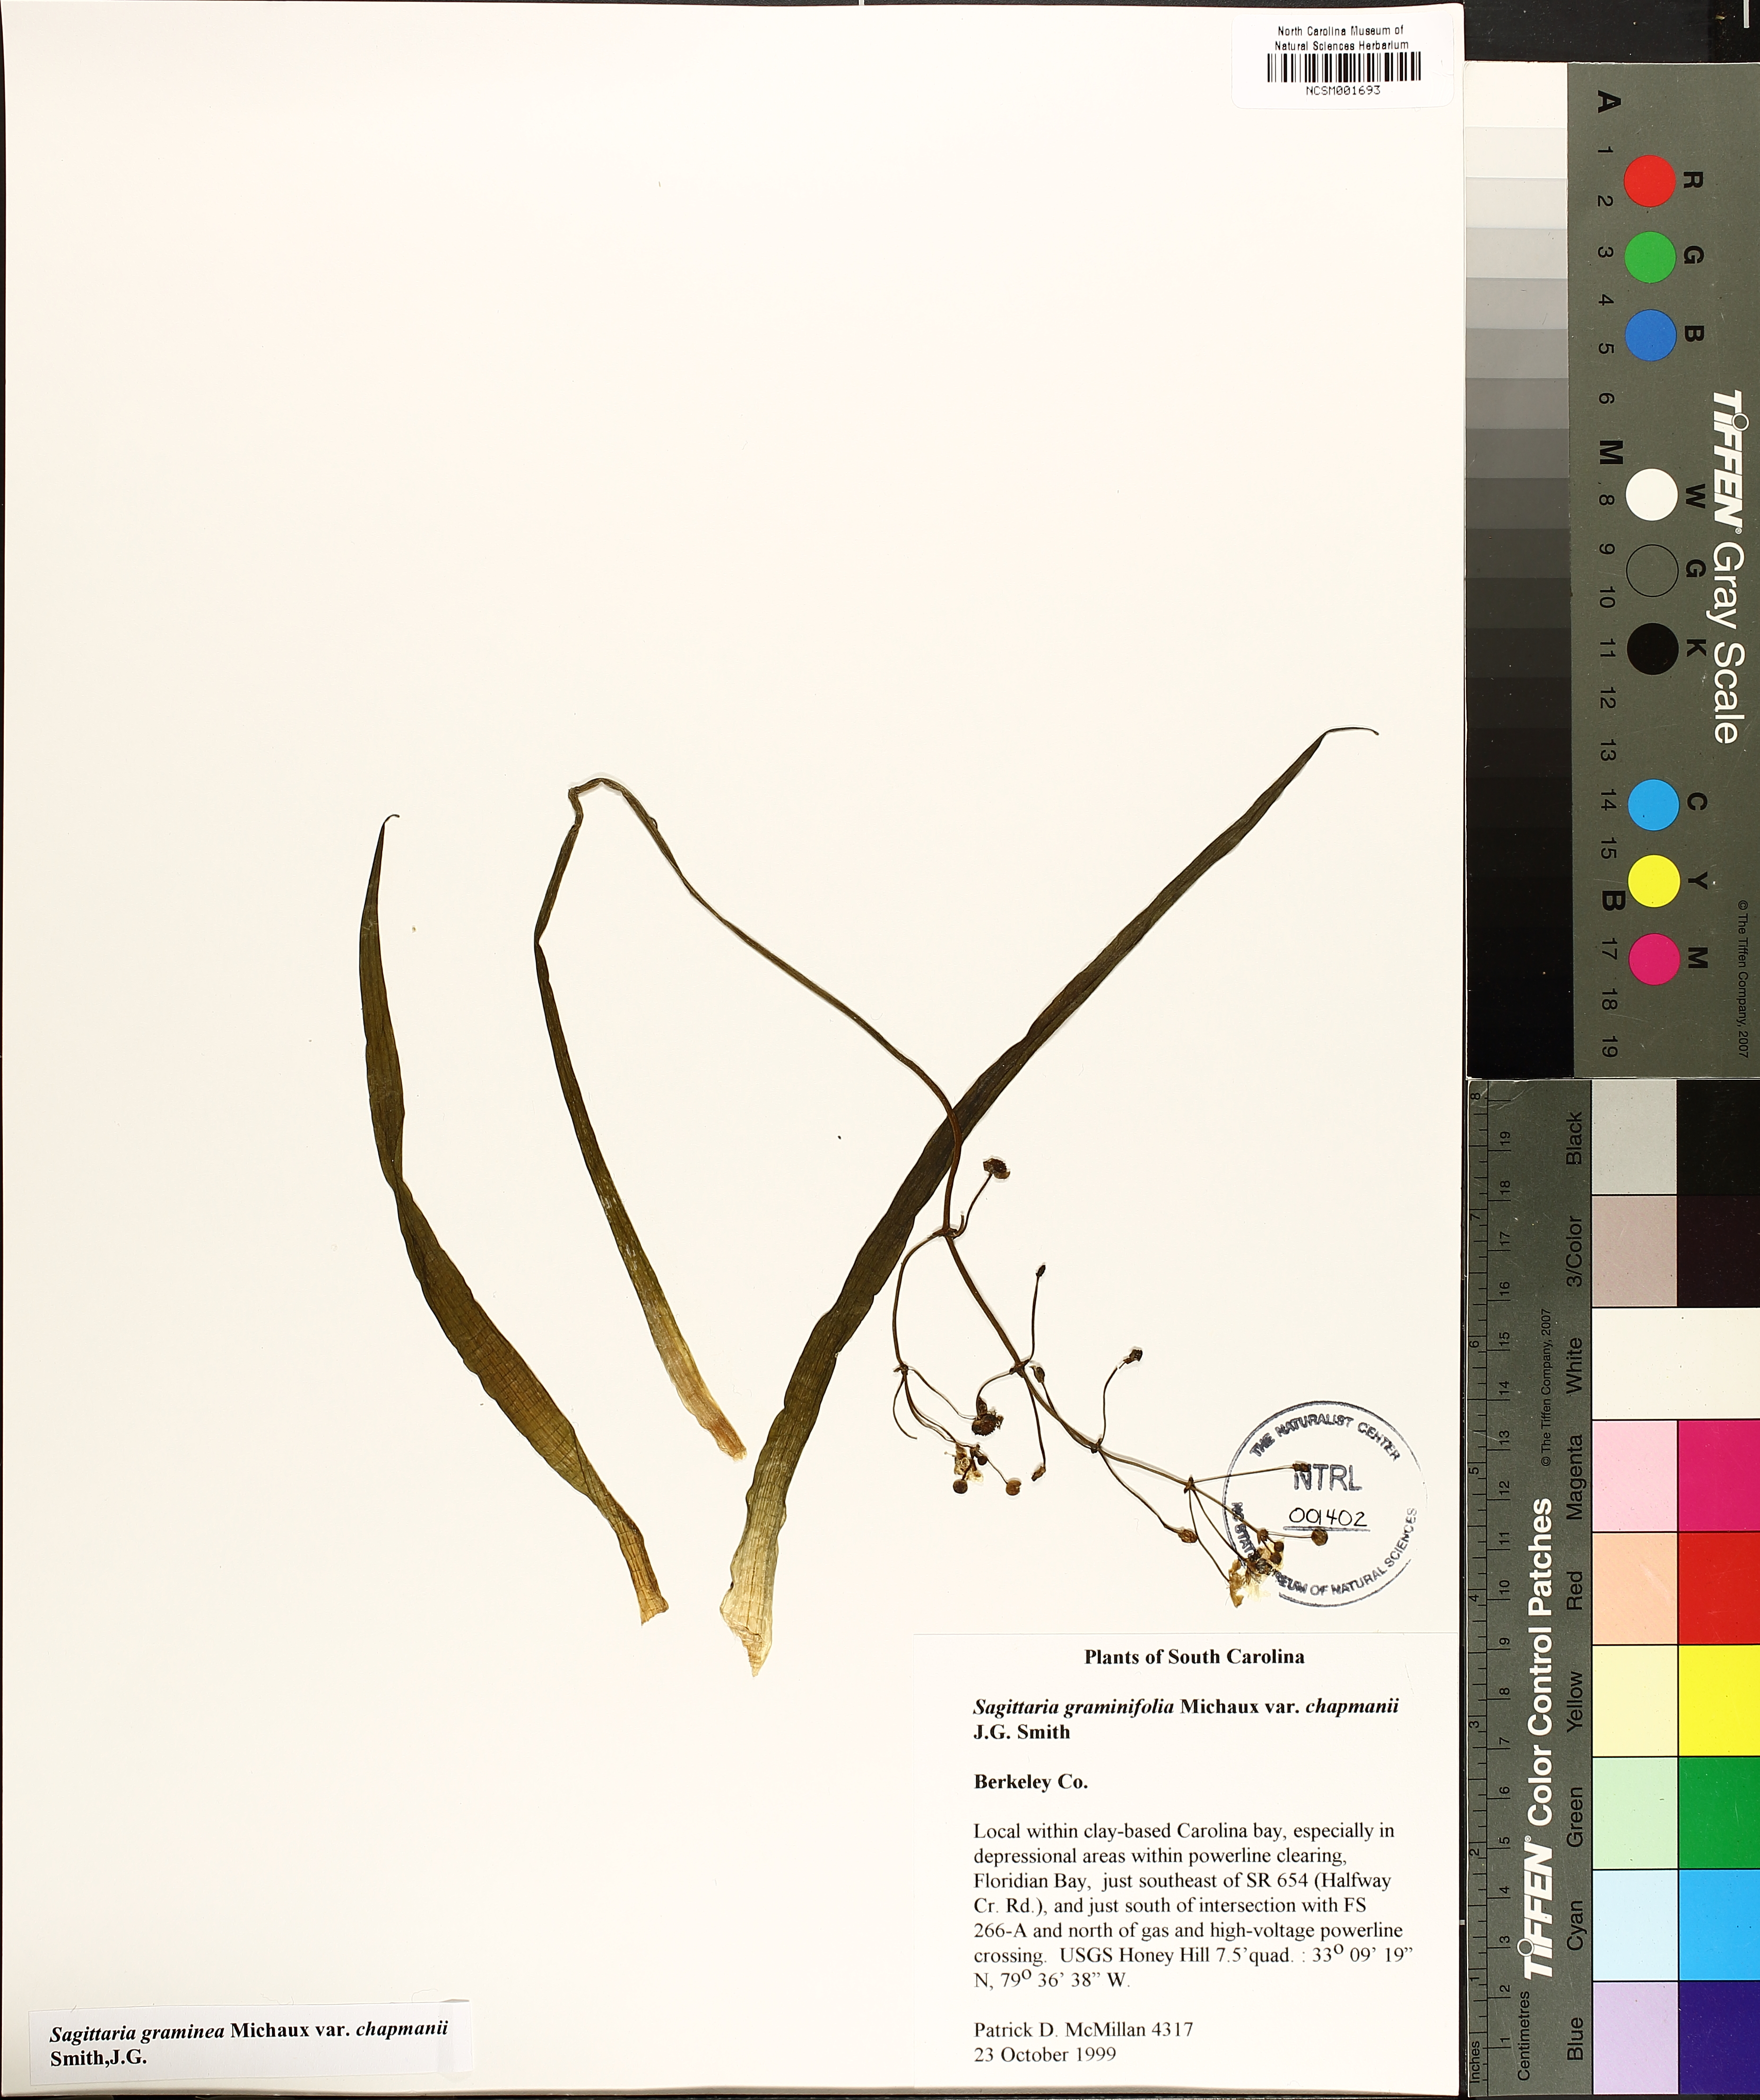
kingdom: Plantae
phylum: Tracheophyta
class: Liliopsida
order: Alismatales
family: Alismataceae
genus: Sagittaria
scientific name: Sagittaria chapmanii
